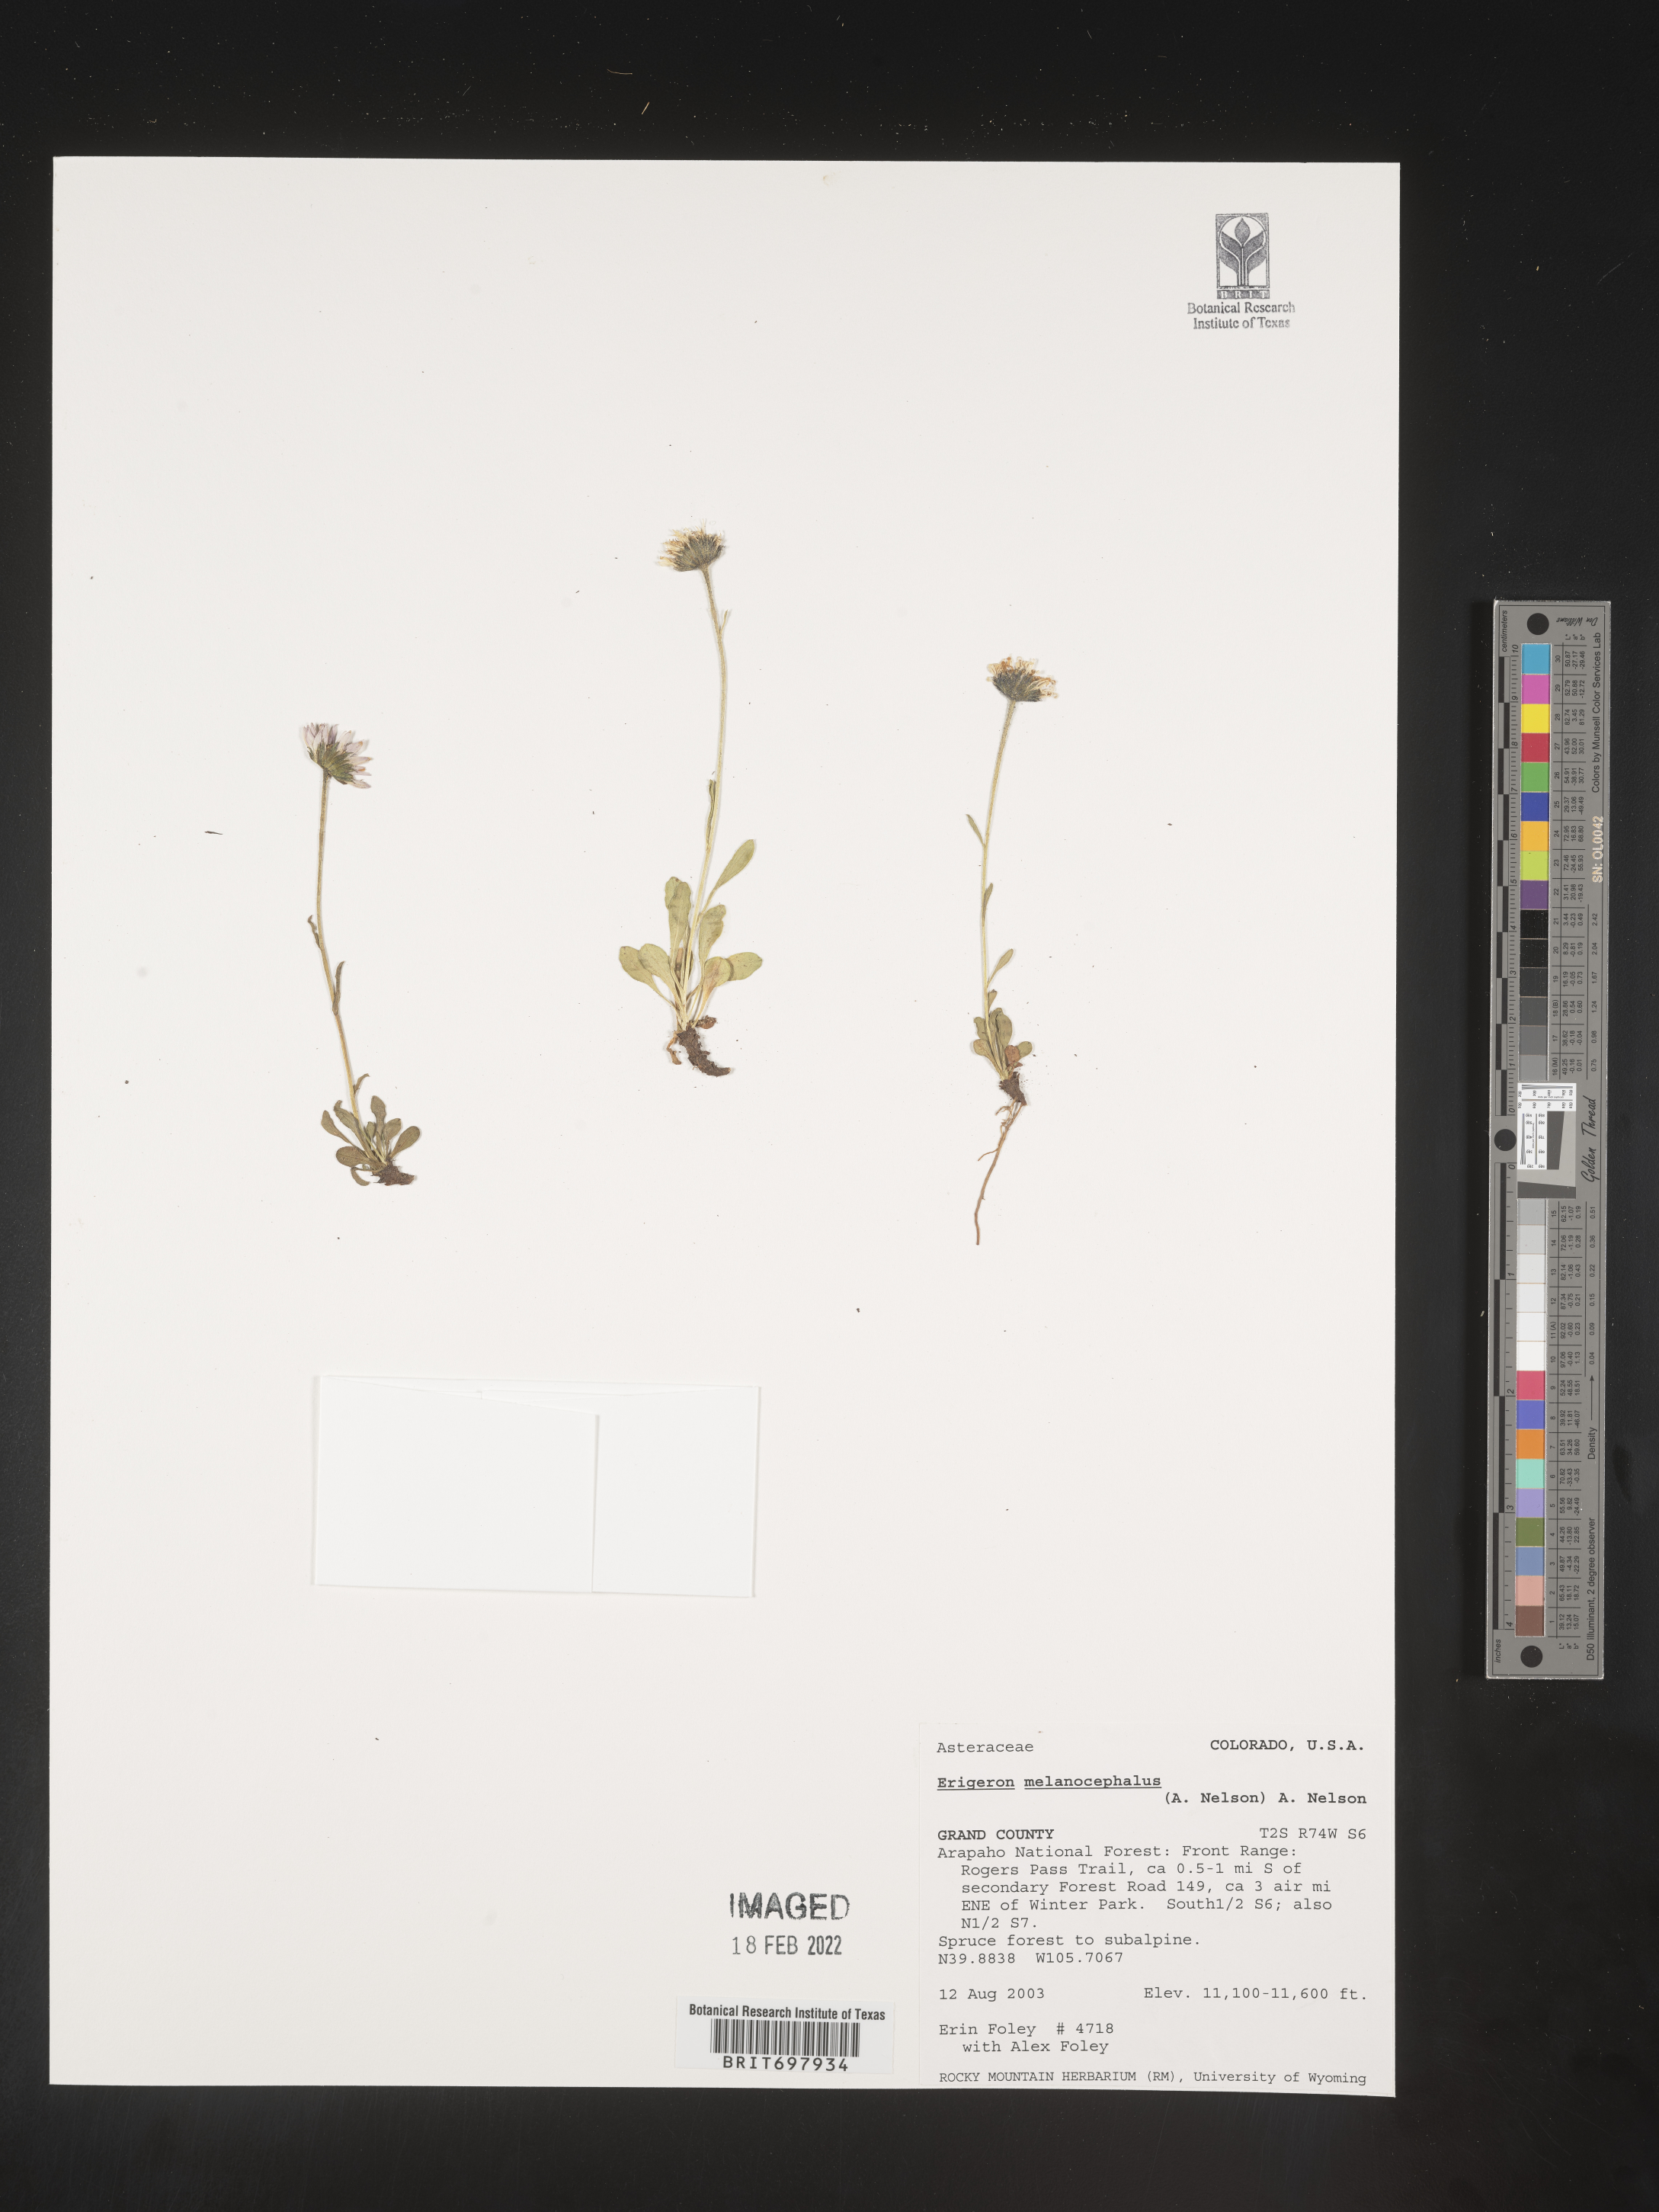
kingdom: Plantae
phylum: Tracheophyta
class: Magnoliopsida
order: Asterales
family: Asteraceae
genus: Erigeron
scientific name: Erigeron melanocephalus
